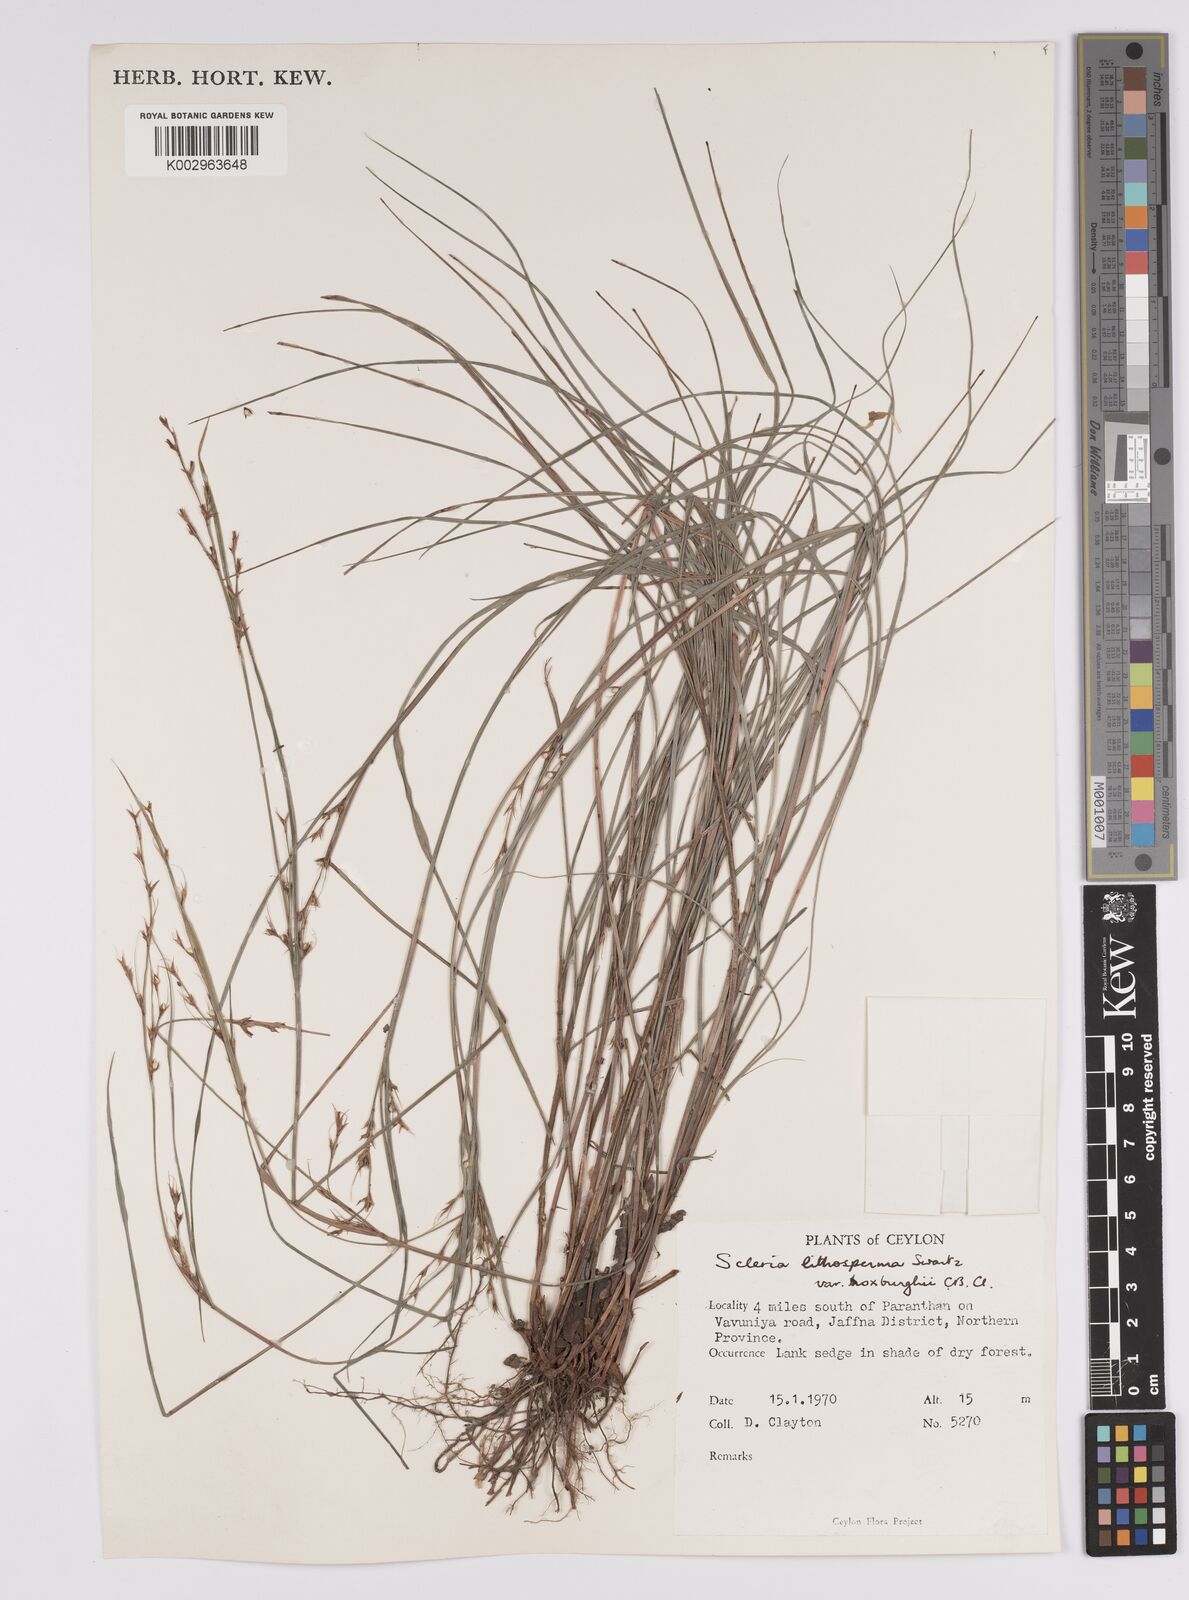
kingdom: Plantae
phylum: Tracheophyta
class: Liliopsida
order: Poales
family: Cyperaceae
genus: Scleria
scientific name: Scleria lithosperma
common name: Florida keys nut-rush
